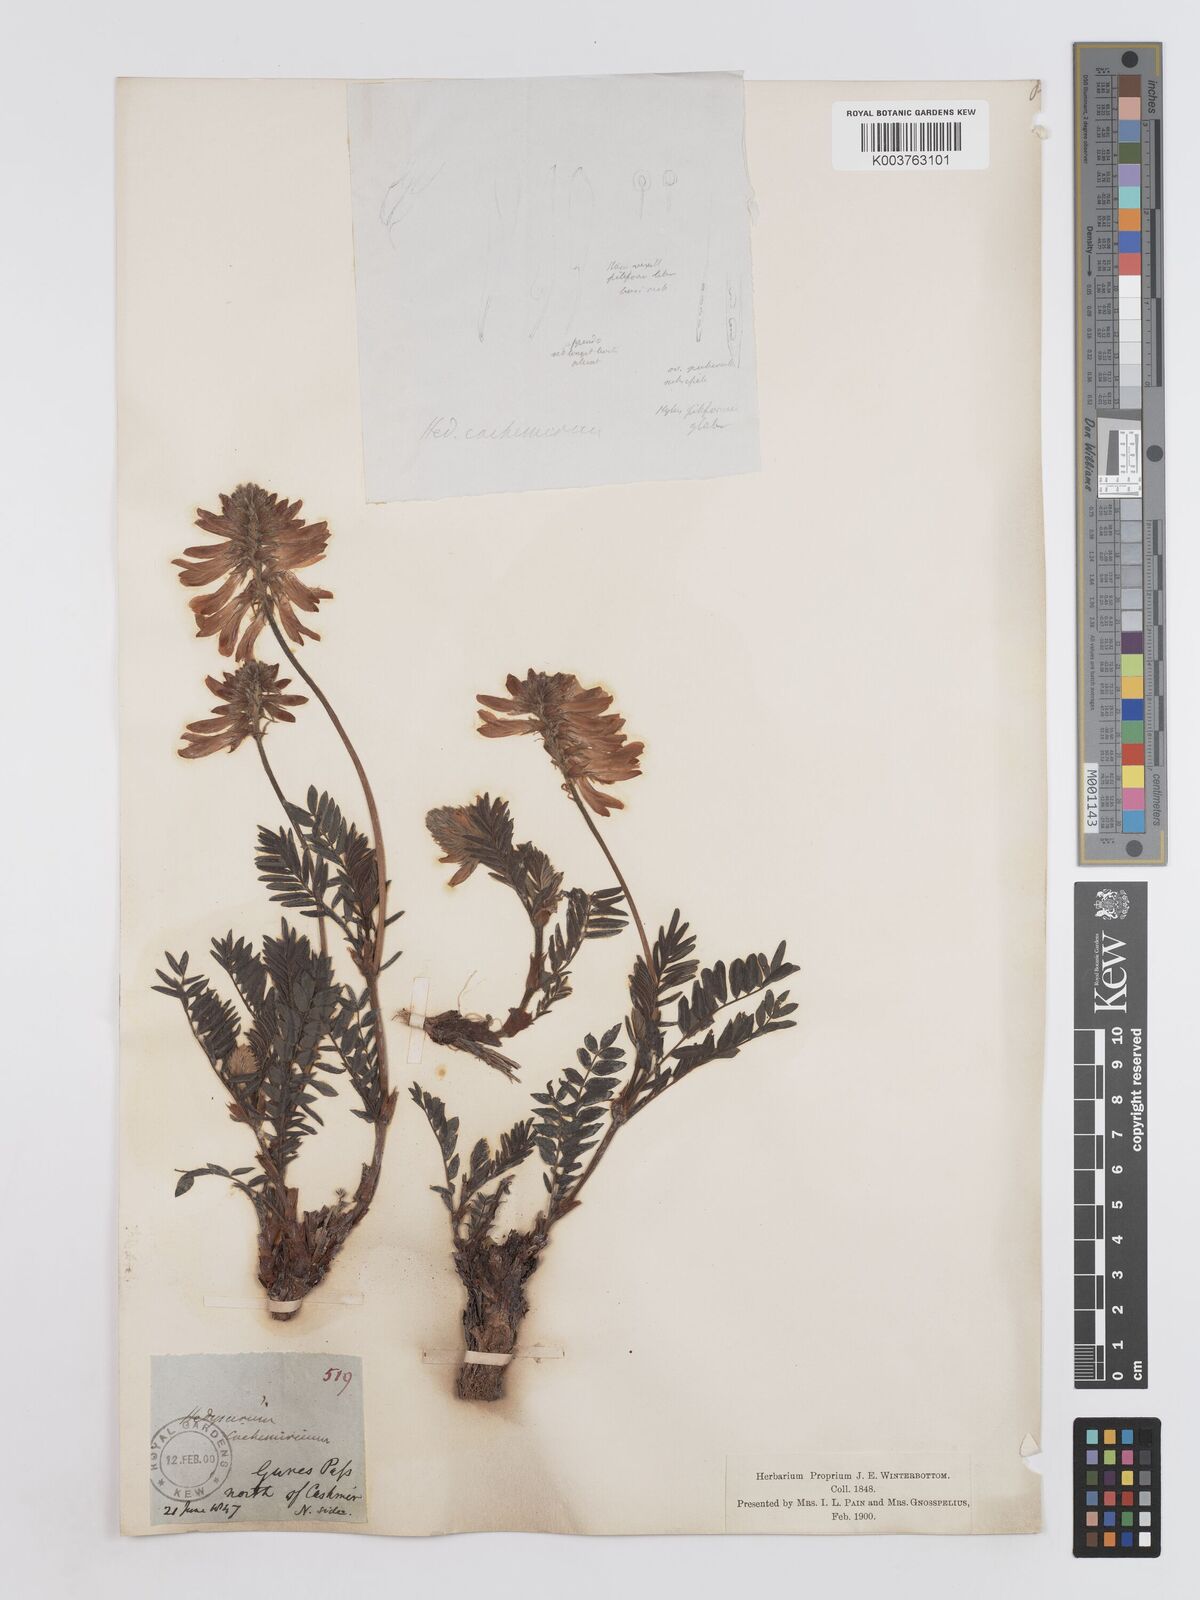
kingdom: Plantae
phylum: Tracheophyta
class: Magnoliopsida
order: Fabales
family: Fabaceae
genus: Hedysarum
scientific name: Hedysarum cachemirianum
